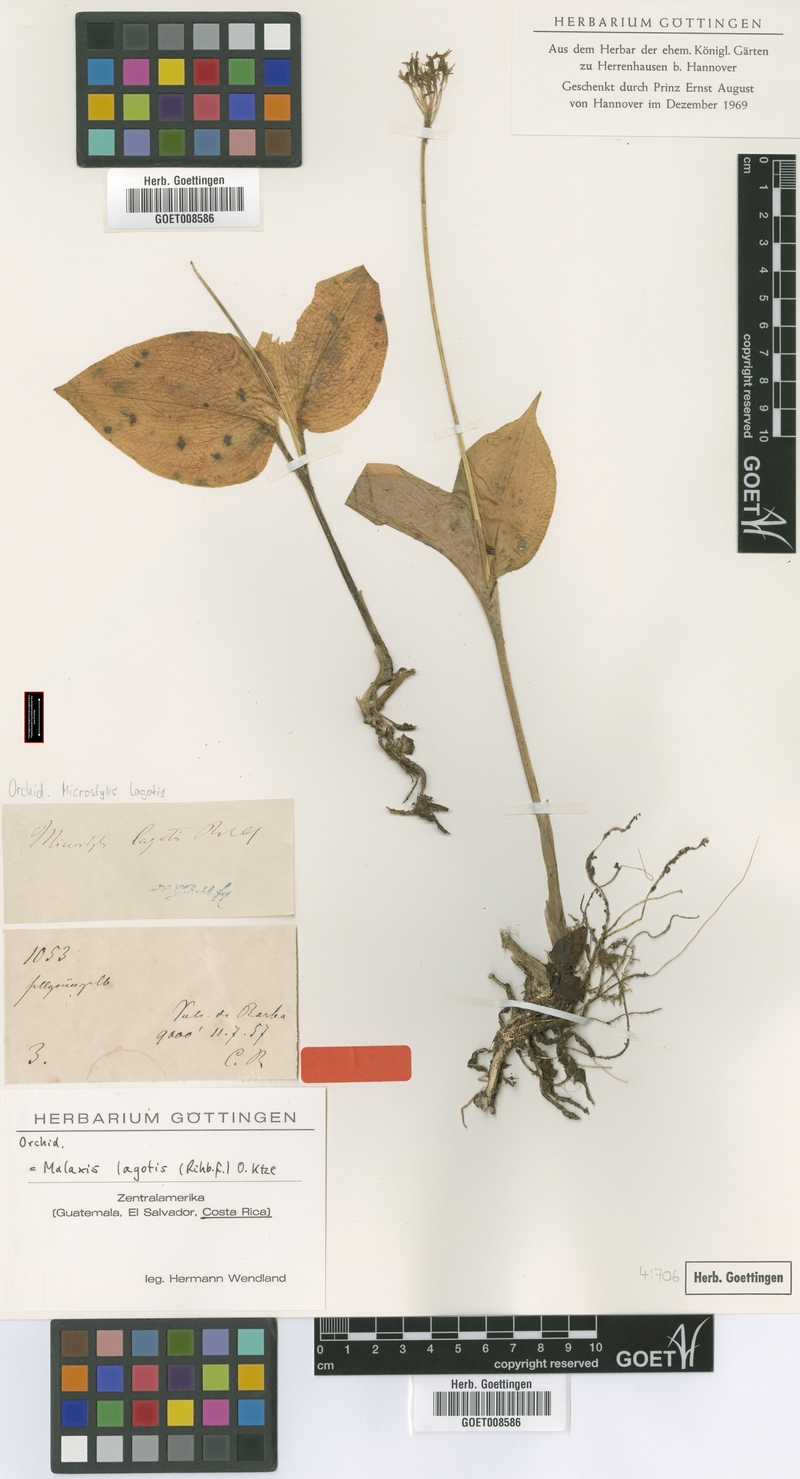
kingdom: Plantae
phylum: Tracheophyta
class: Liliopsida
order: Asparagales
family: Orchidaceae
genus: Malaxis
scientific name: Malaxis lagotis
